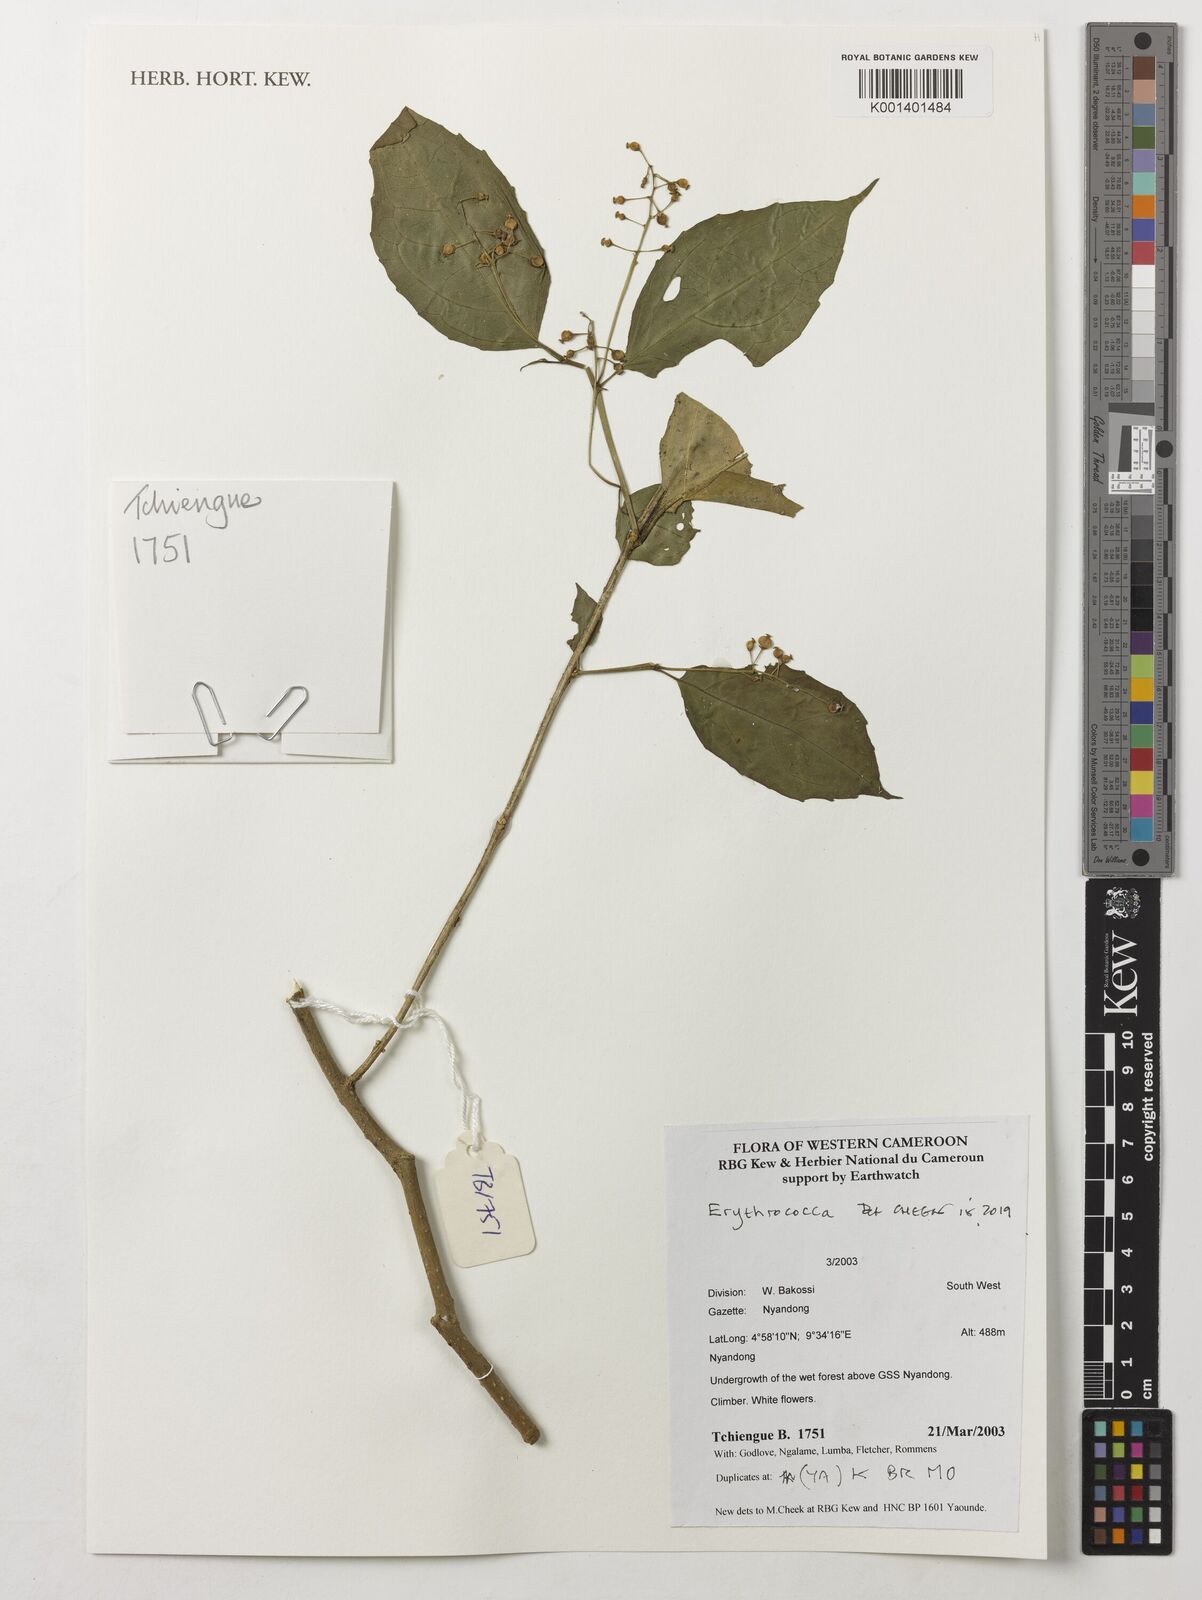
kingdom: Plantae
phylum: Tracheophyta
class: Magnoliopsida
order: Malpighiales
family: Euphorbiaceae
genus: Erythrococca
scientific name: Erythrococca
